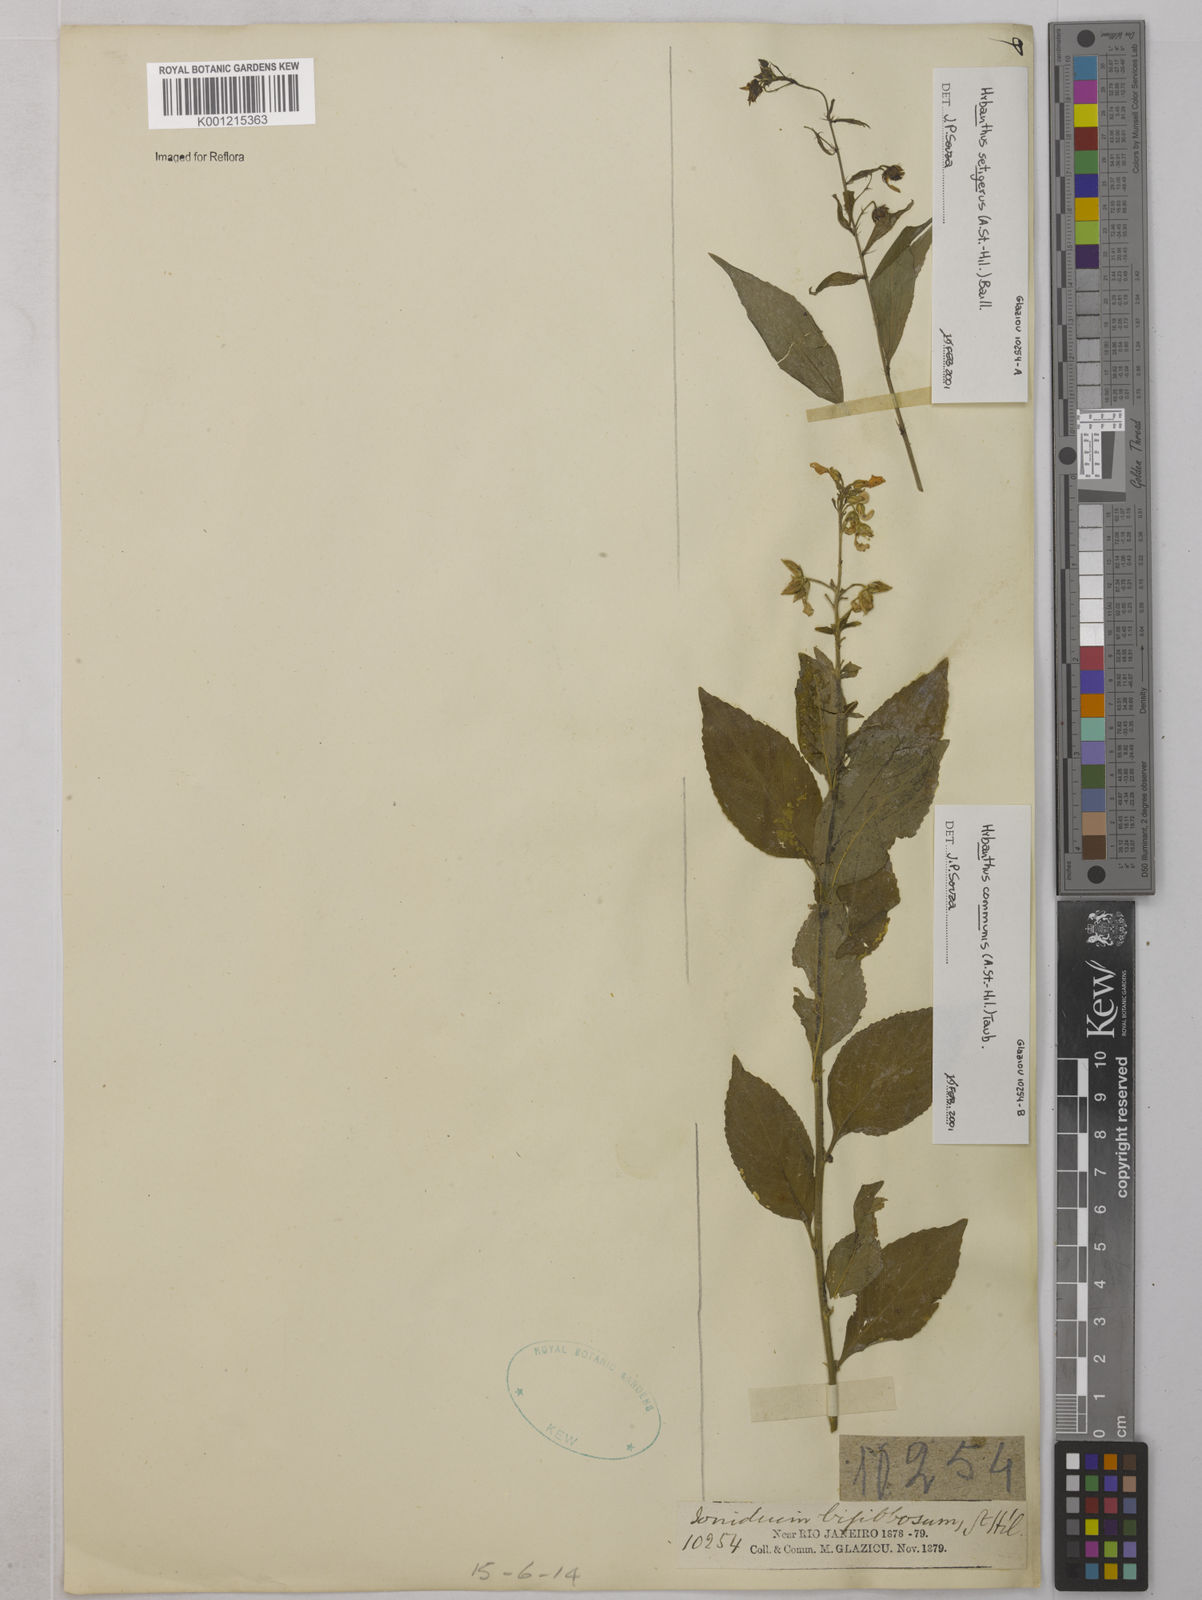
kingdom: Plantae
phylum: Tracheophyta
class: Magnoliopsida
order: Malpighiales
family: Violaceae
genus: Pombalia
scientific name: Pombalia communis
